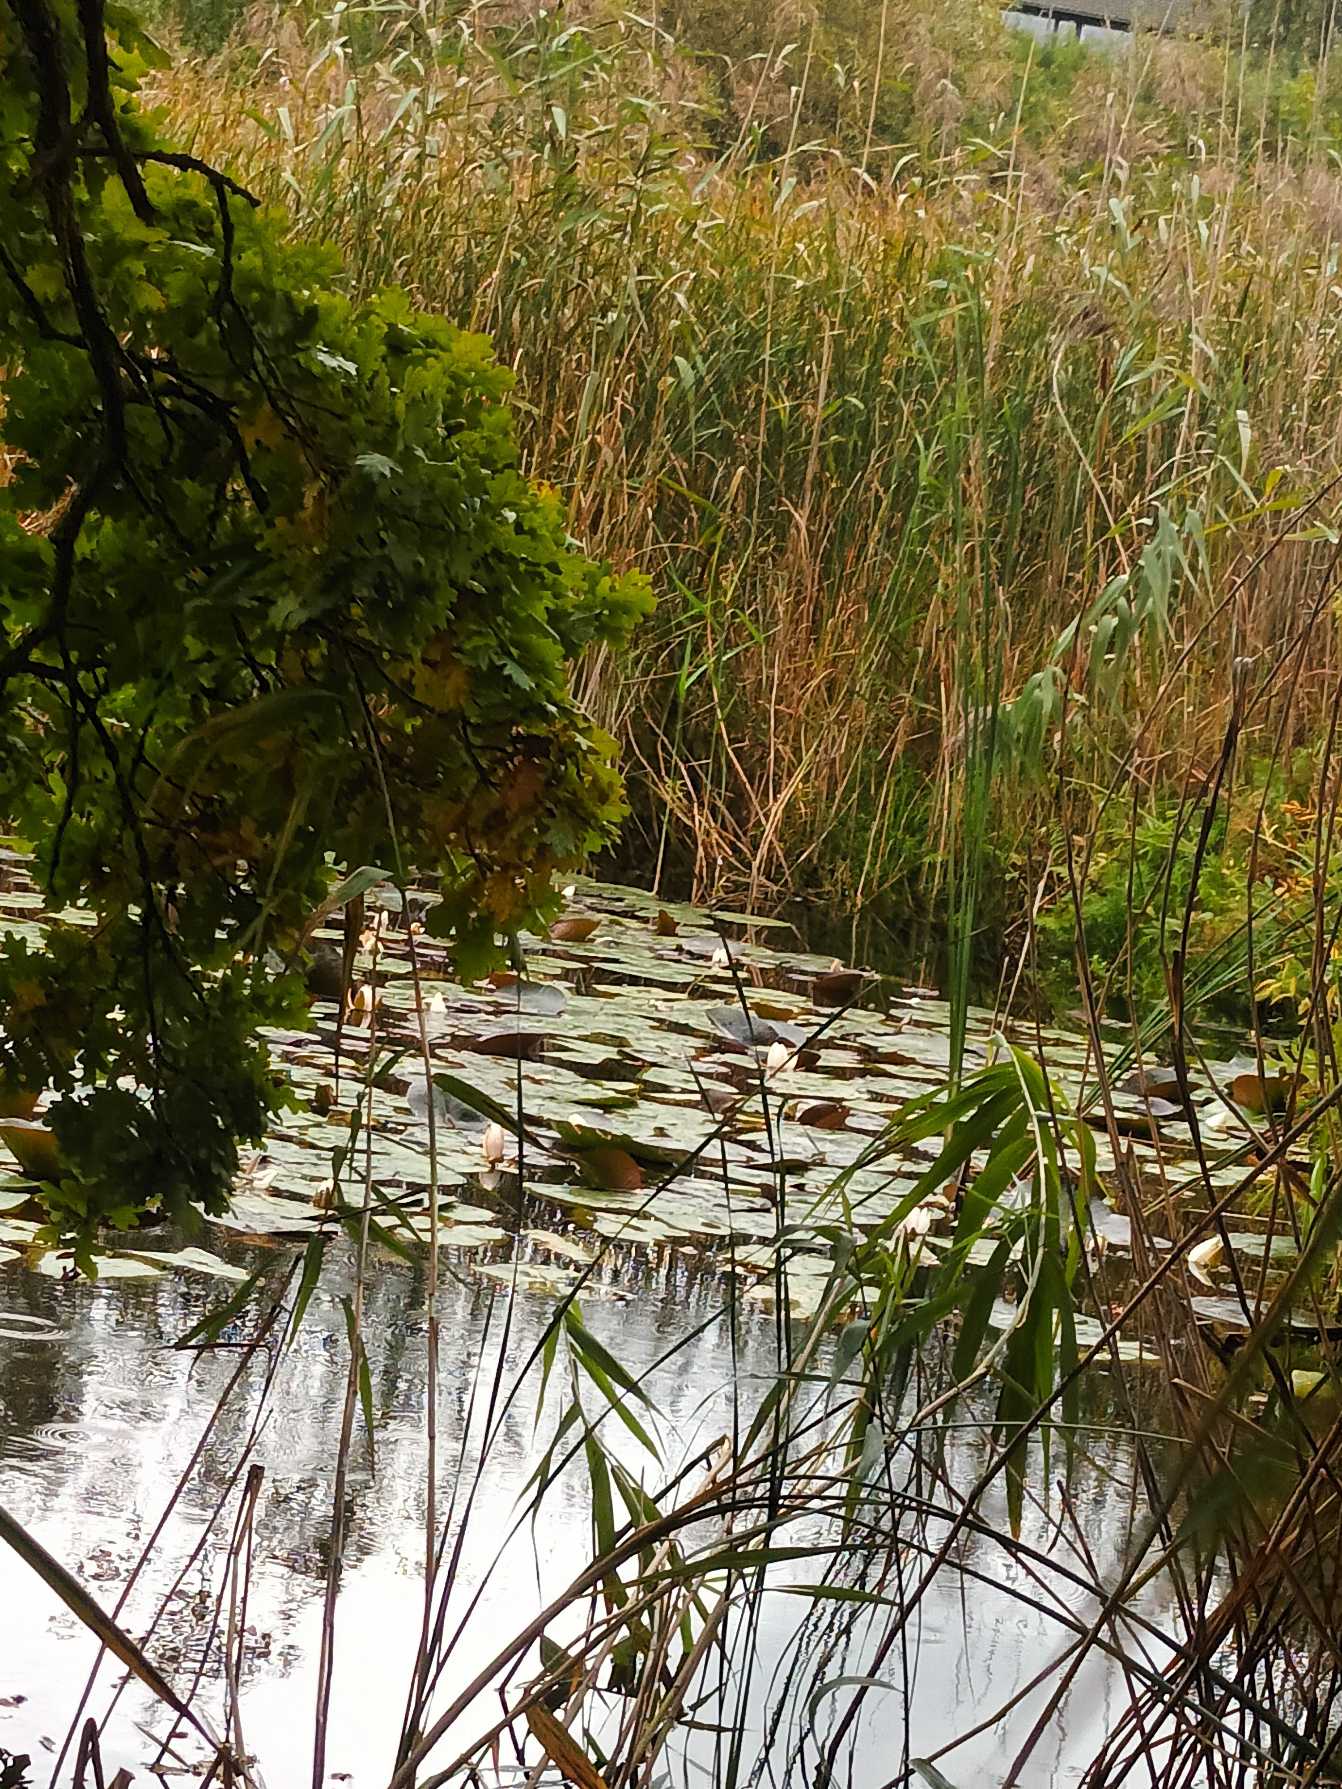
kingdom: Plantae
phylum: Tracheophyta
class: Magnoliopsida
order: Nymphaeales
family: Nymphaeaceae
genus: Nymphaea
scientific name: Nymphaea alba
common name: Hvid åkande
